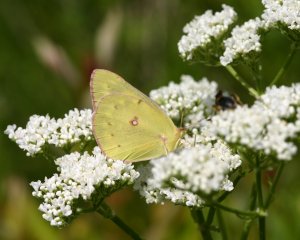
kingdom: Animalia
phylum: Arthropoda
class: Insecta
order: Lepidoptera
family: Pieridae
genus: Colias
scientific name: Colias philodice
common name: Clouded Sulphur
